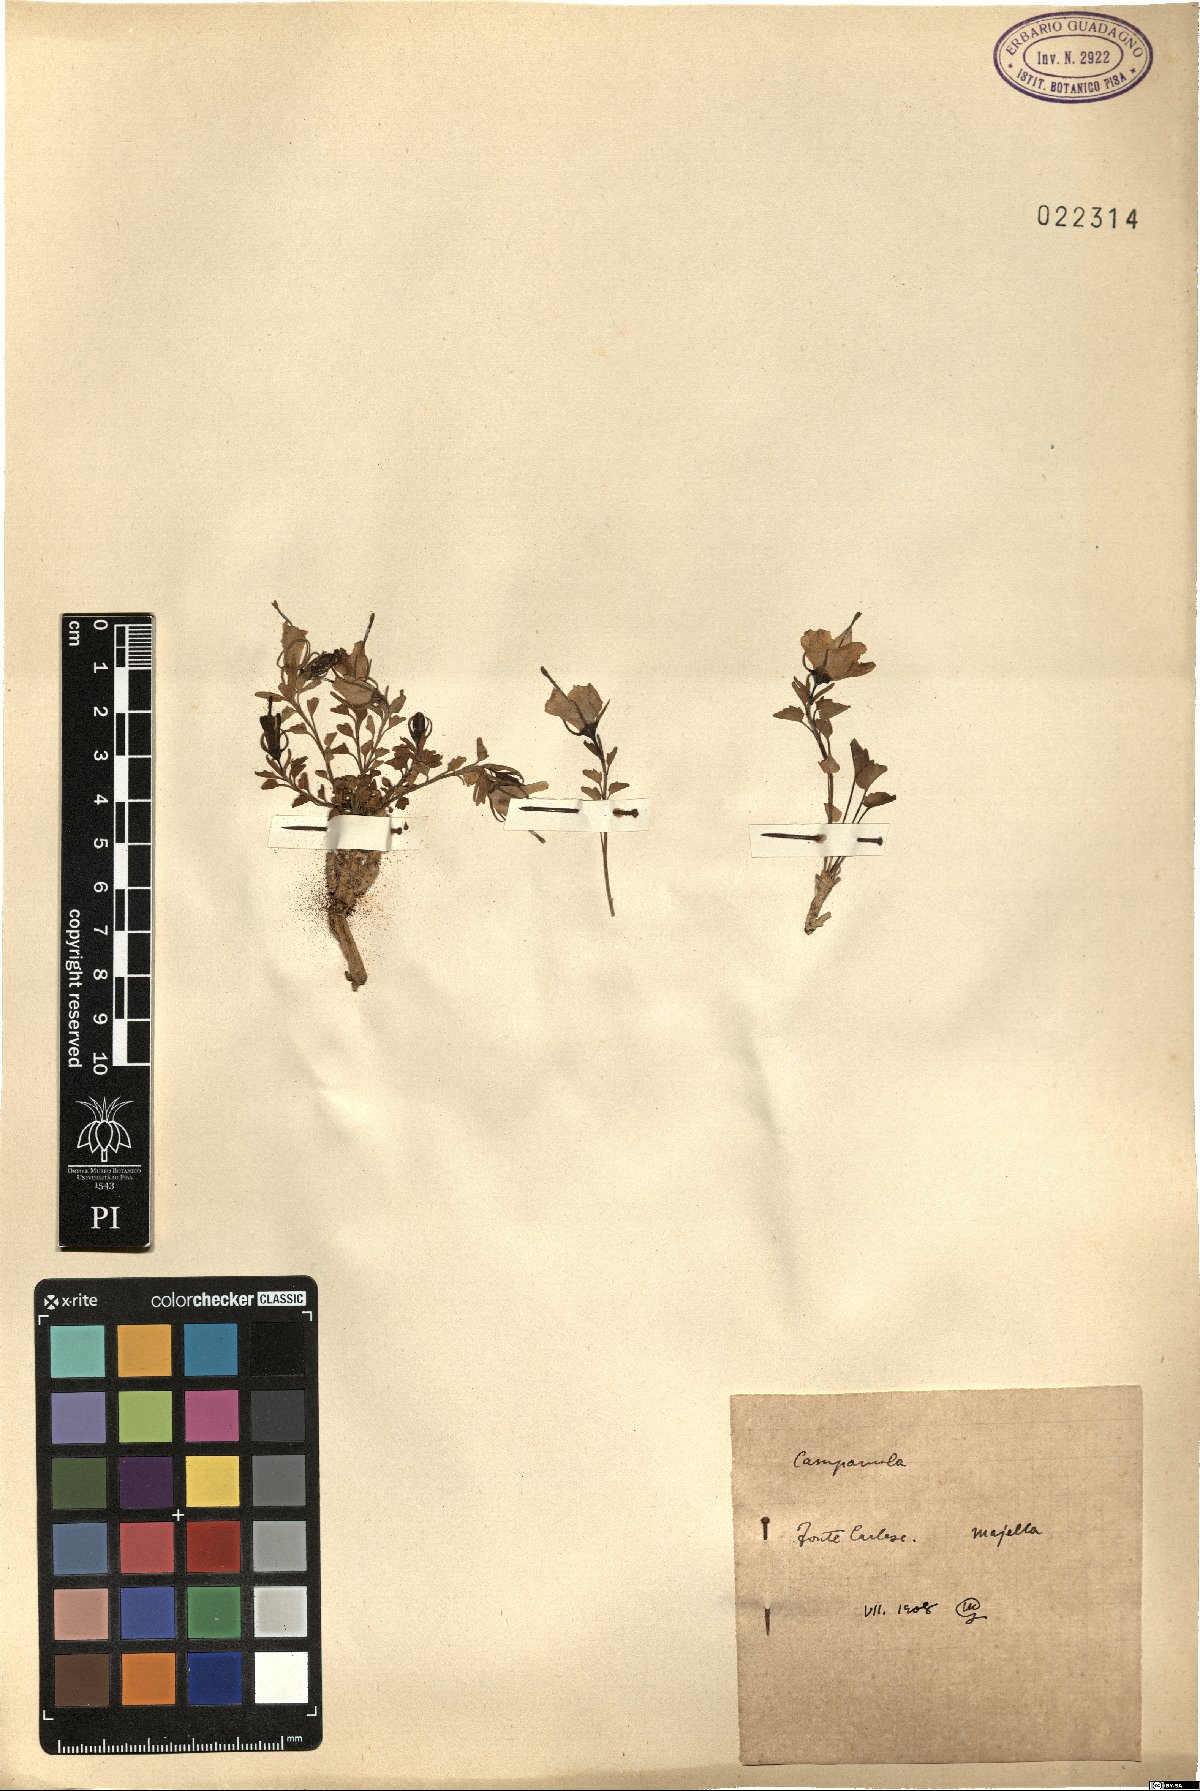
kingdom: Plantae
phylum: Tracheophyta
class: Magnoliopsida
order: Asterales
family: Campanulaceae
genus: Campanula
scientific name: Campanula
